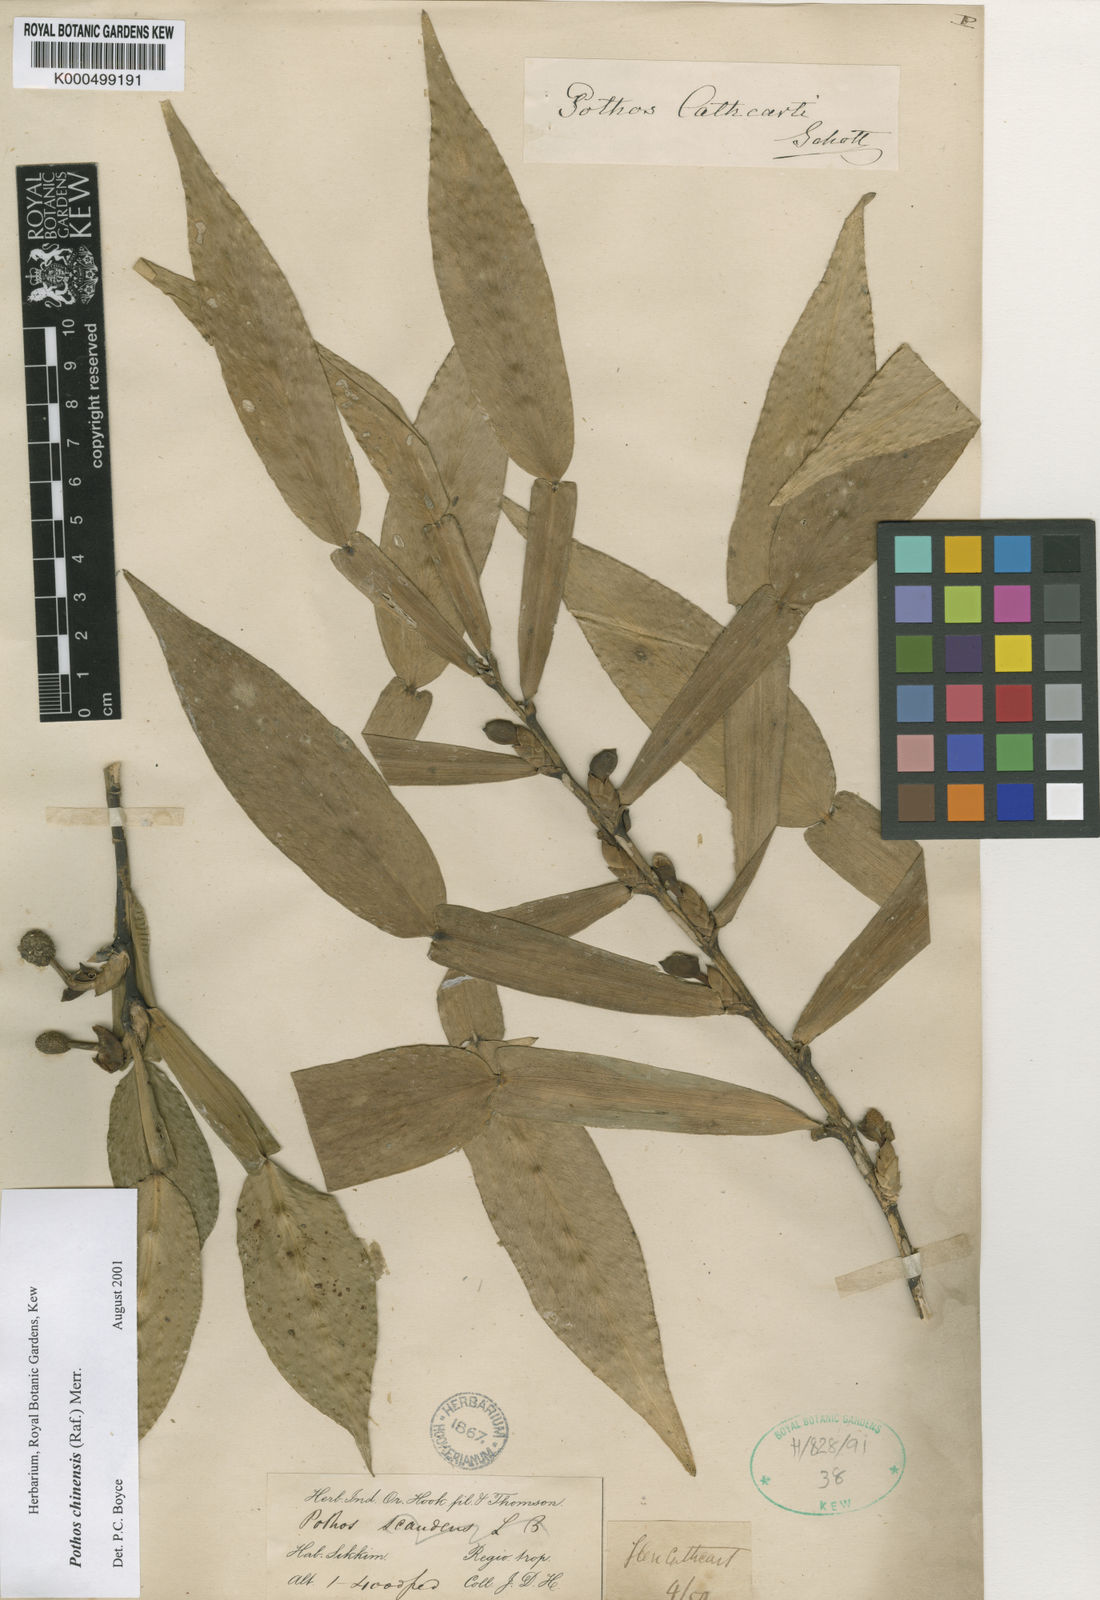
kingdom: Plantae
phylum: Tracheophyta
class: Liliopsida
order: Alismatales
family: Araceae
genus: Pothos
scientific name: Pothos chinensis
